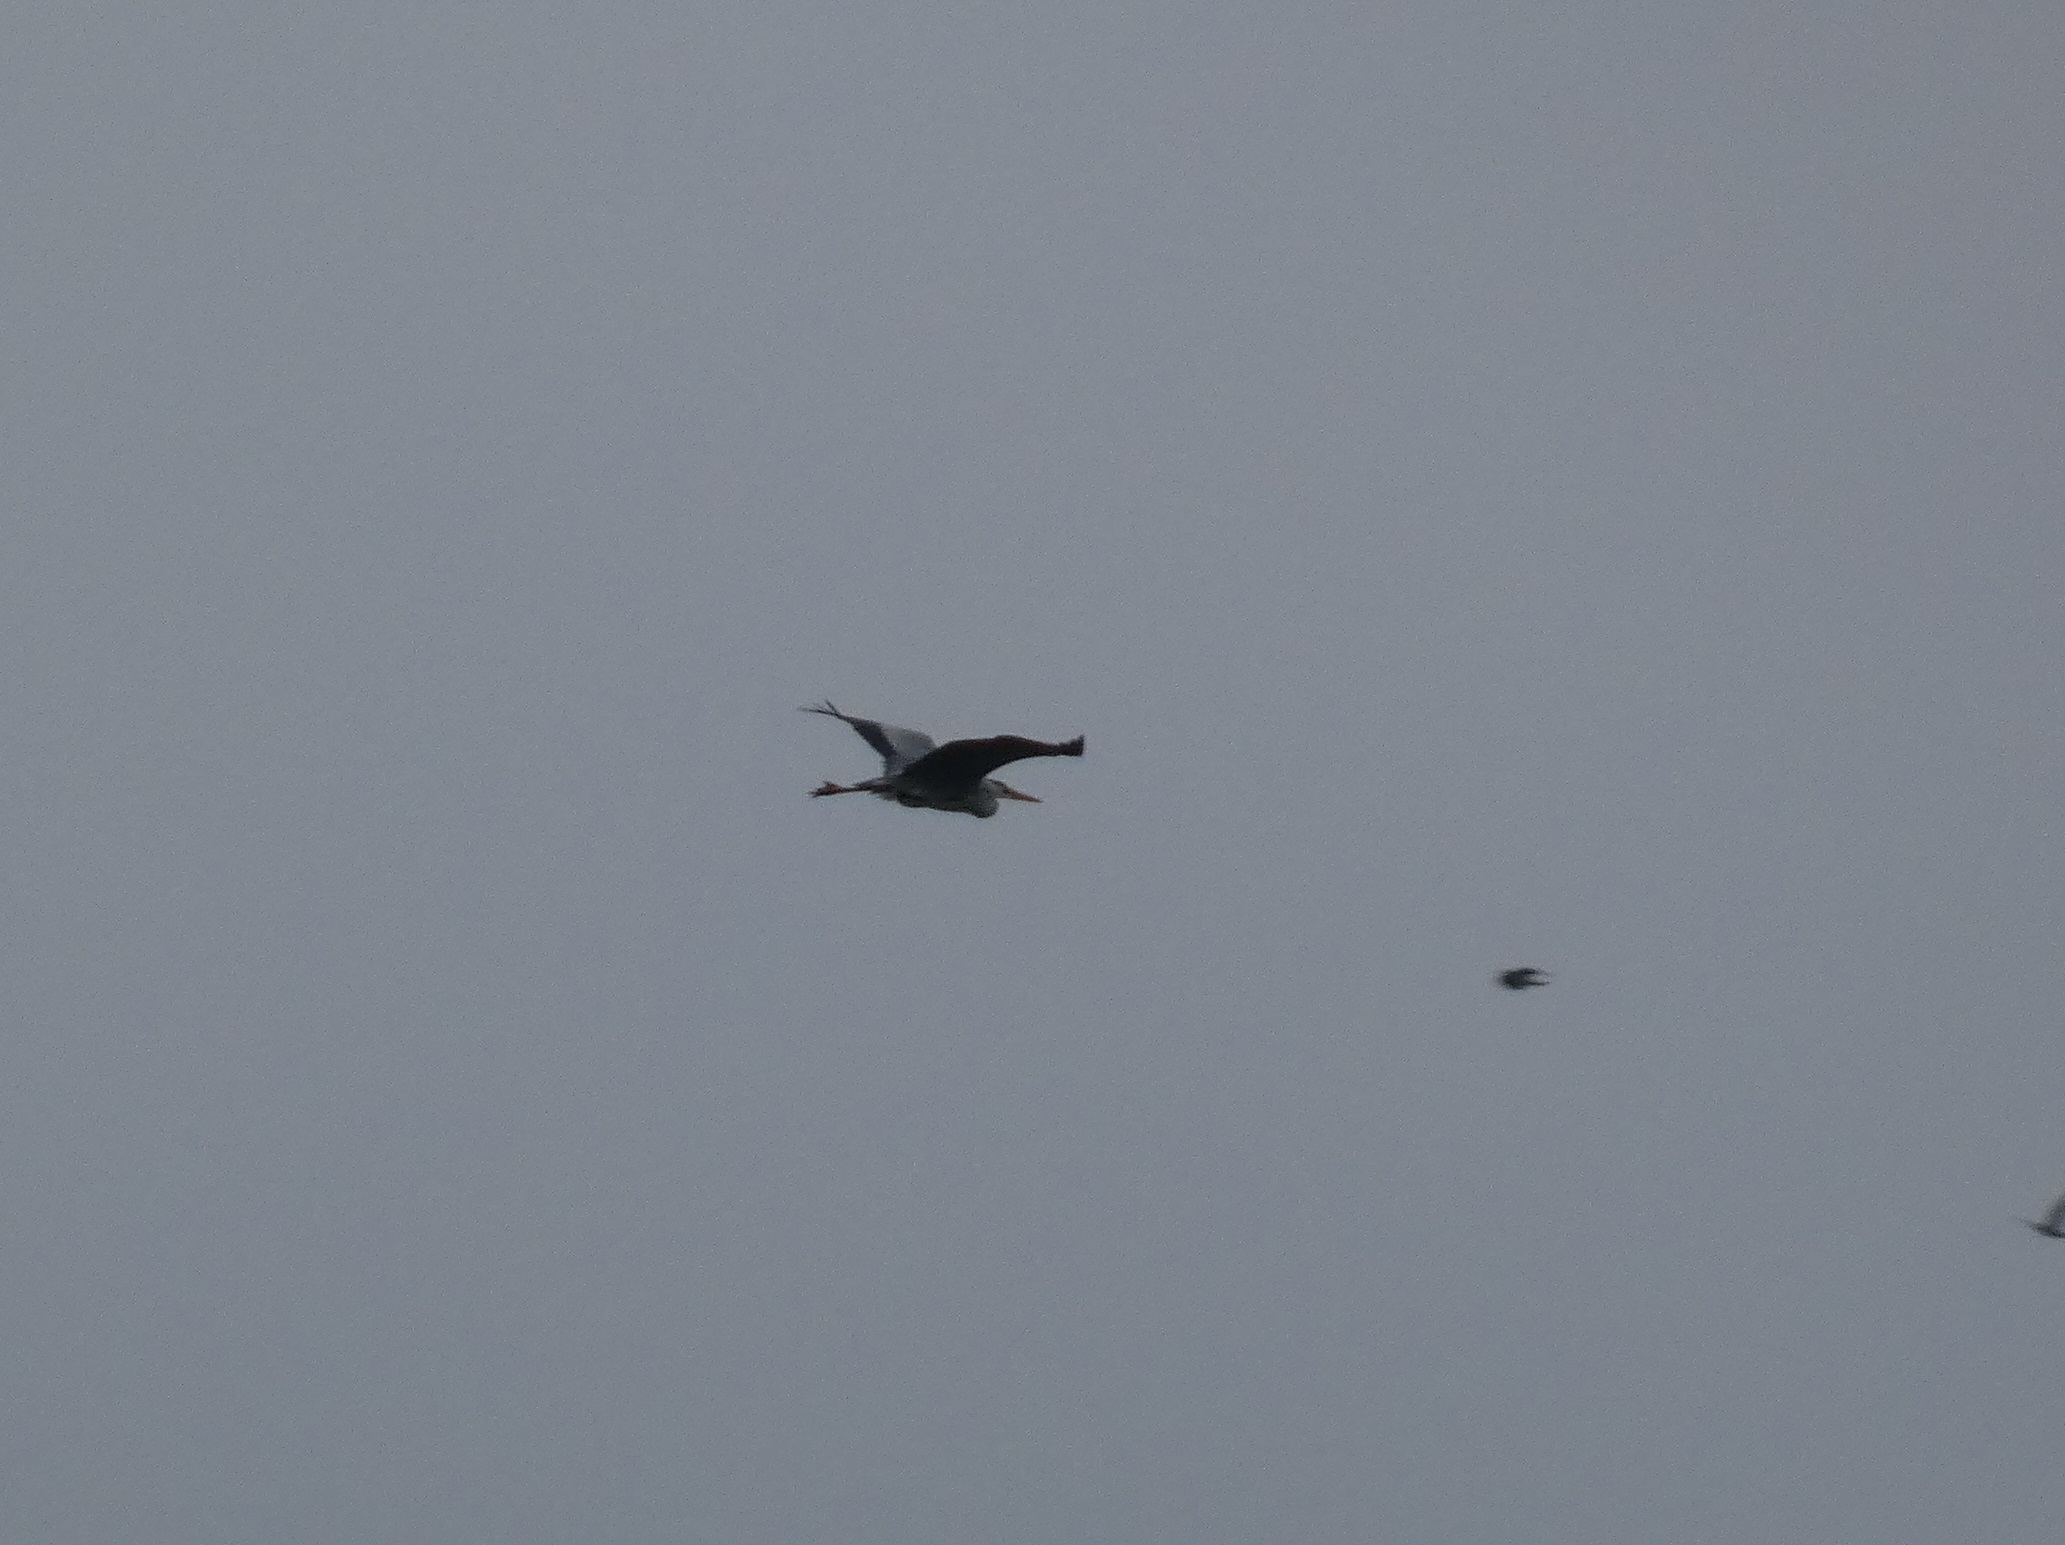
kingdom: Animalia
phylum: Chordata
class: Aves
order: Pelecaniformes
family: Ardeidae
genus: Ardea
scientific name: Ardea cinerea
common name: Fiskehejre
